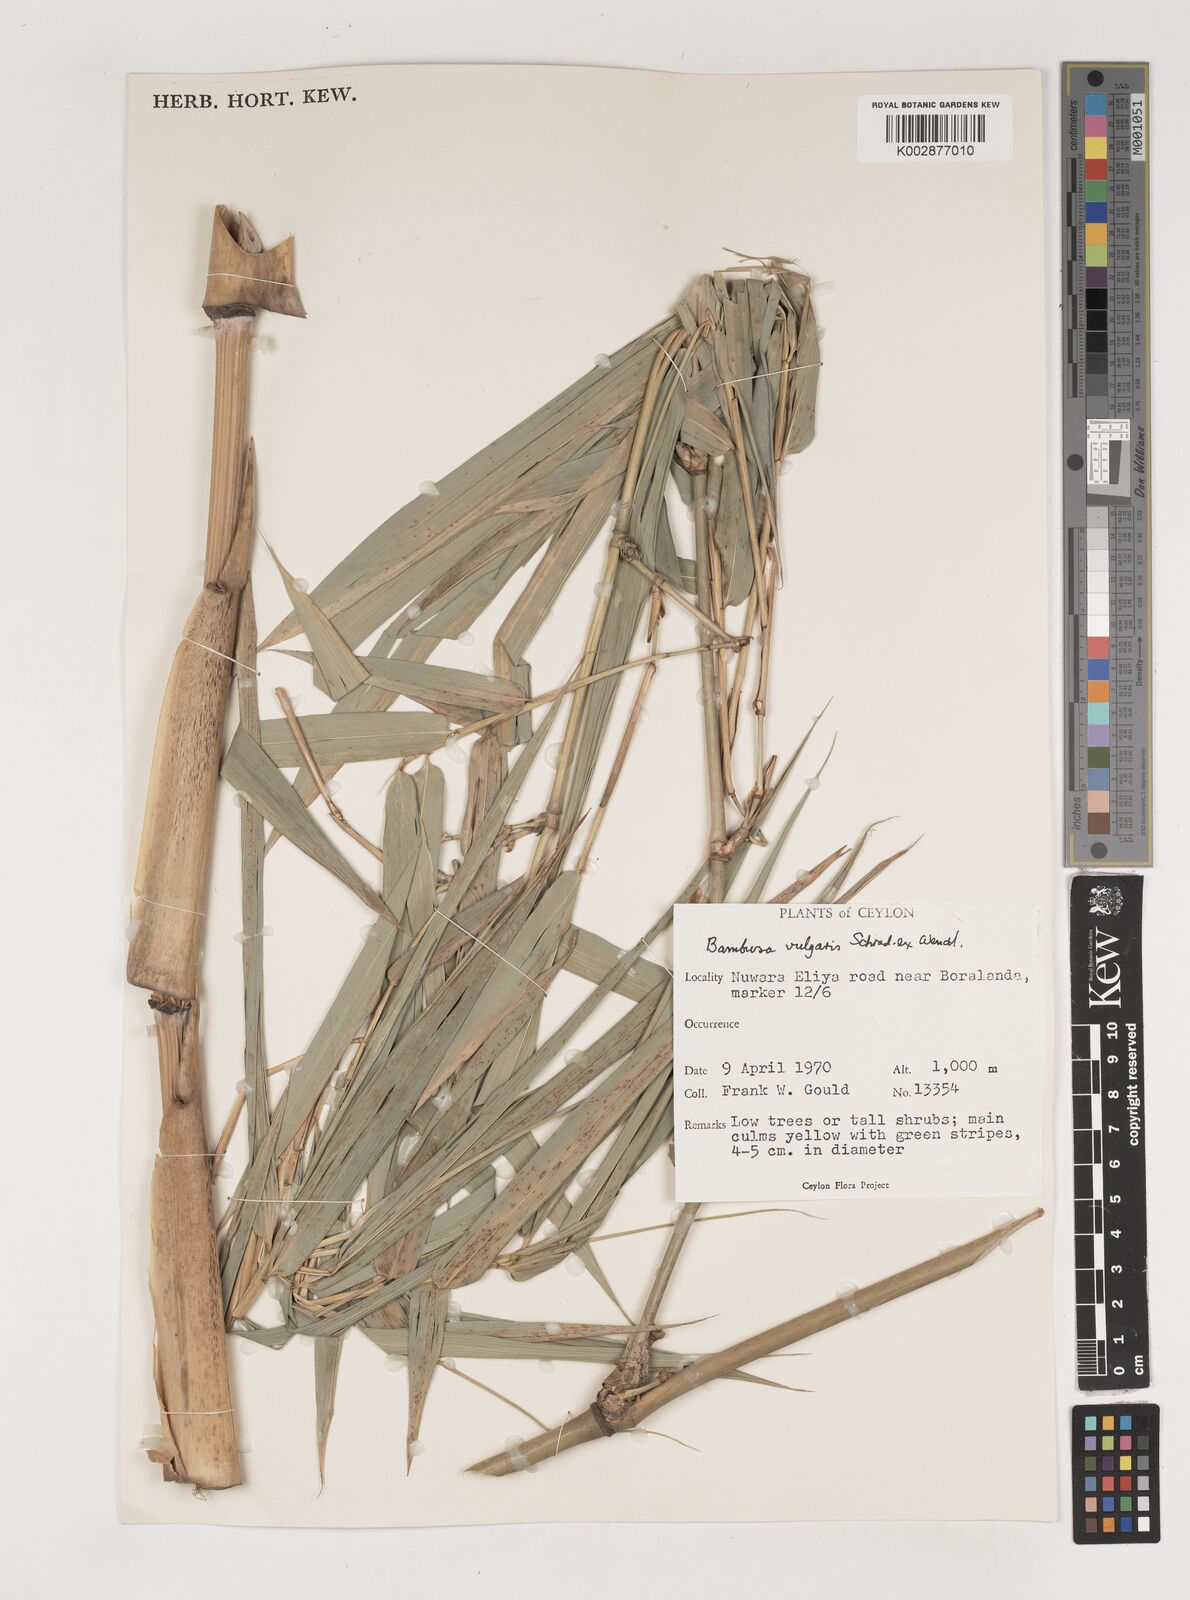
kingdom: Plantae
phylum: Tracheophyta
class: Liliopsida
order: Poales
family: Poaceae
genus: Bambusa
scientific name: Bambusa vulgaris
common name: Common bamboo
